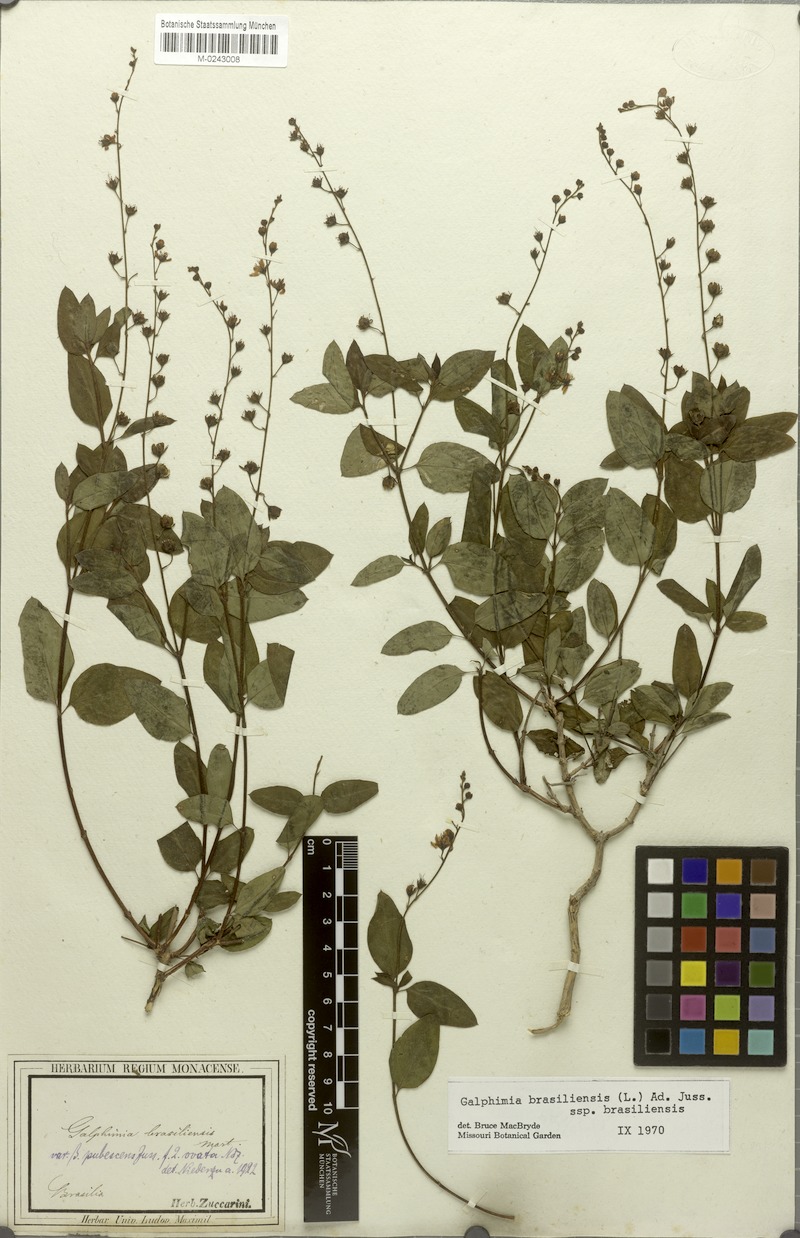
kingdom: Plantae
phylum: Tracheophyta
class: Magnoliopsida
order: Malpighiales
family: Malpighiaceae
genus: Galphimia
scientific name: Galphimia brasiliensis
